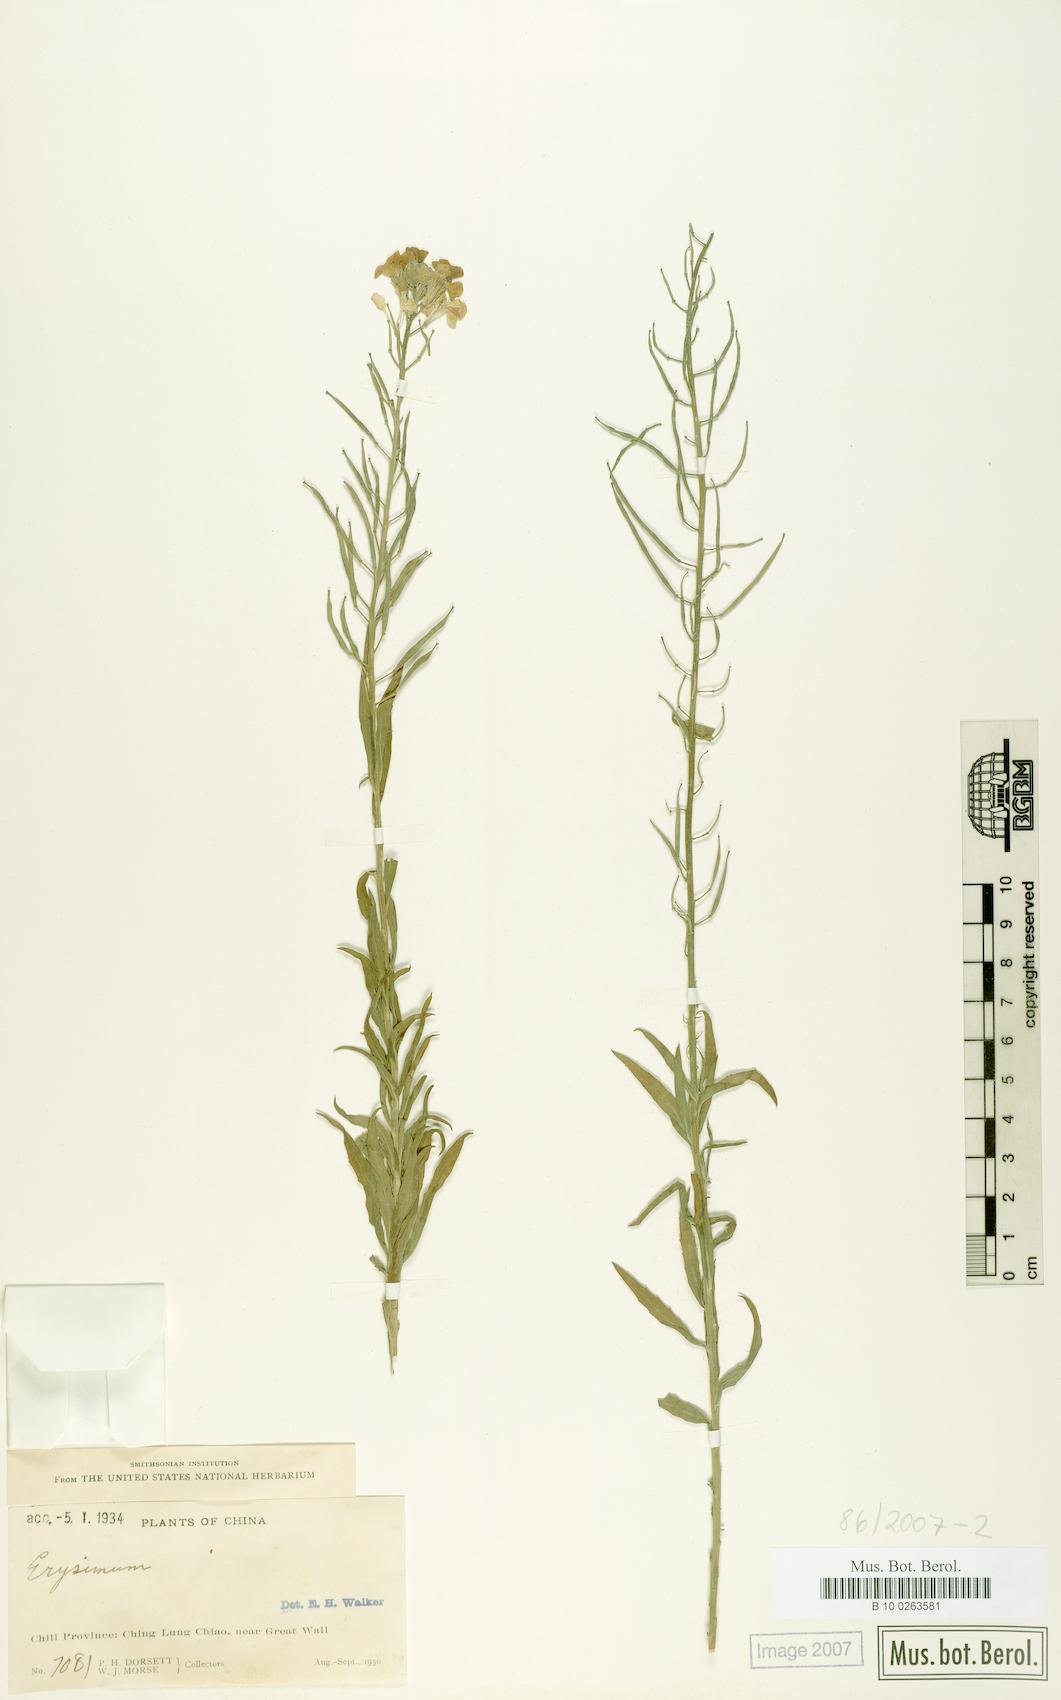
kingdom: Plantae
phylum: Tracheophyta
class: Magnoliopsida
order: Brassicales
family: Brassicaceae
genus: Erysimum
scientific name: Erysimum perofskianum
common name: Afghan erysimum
